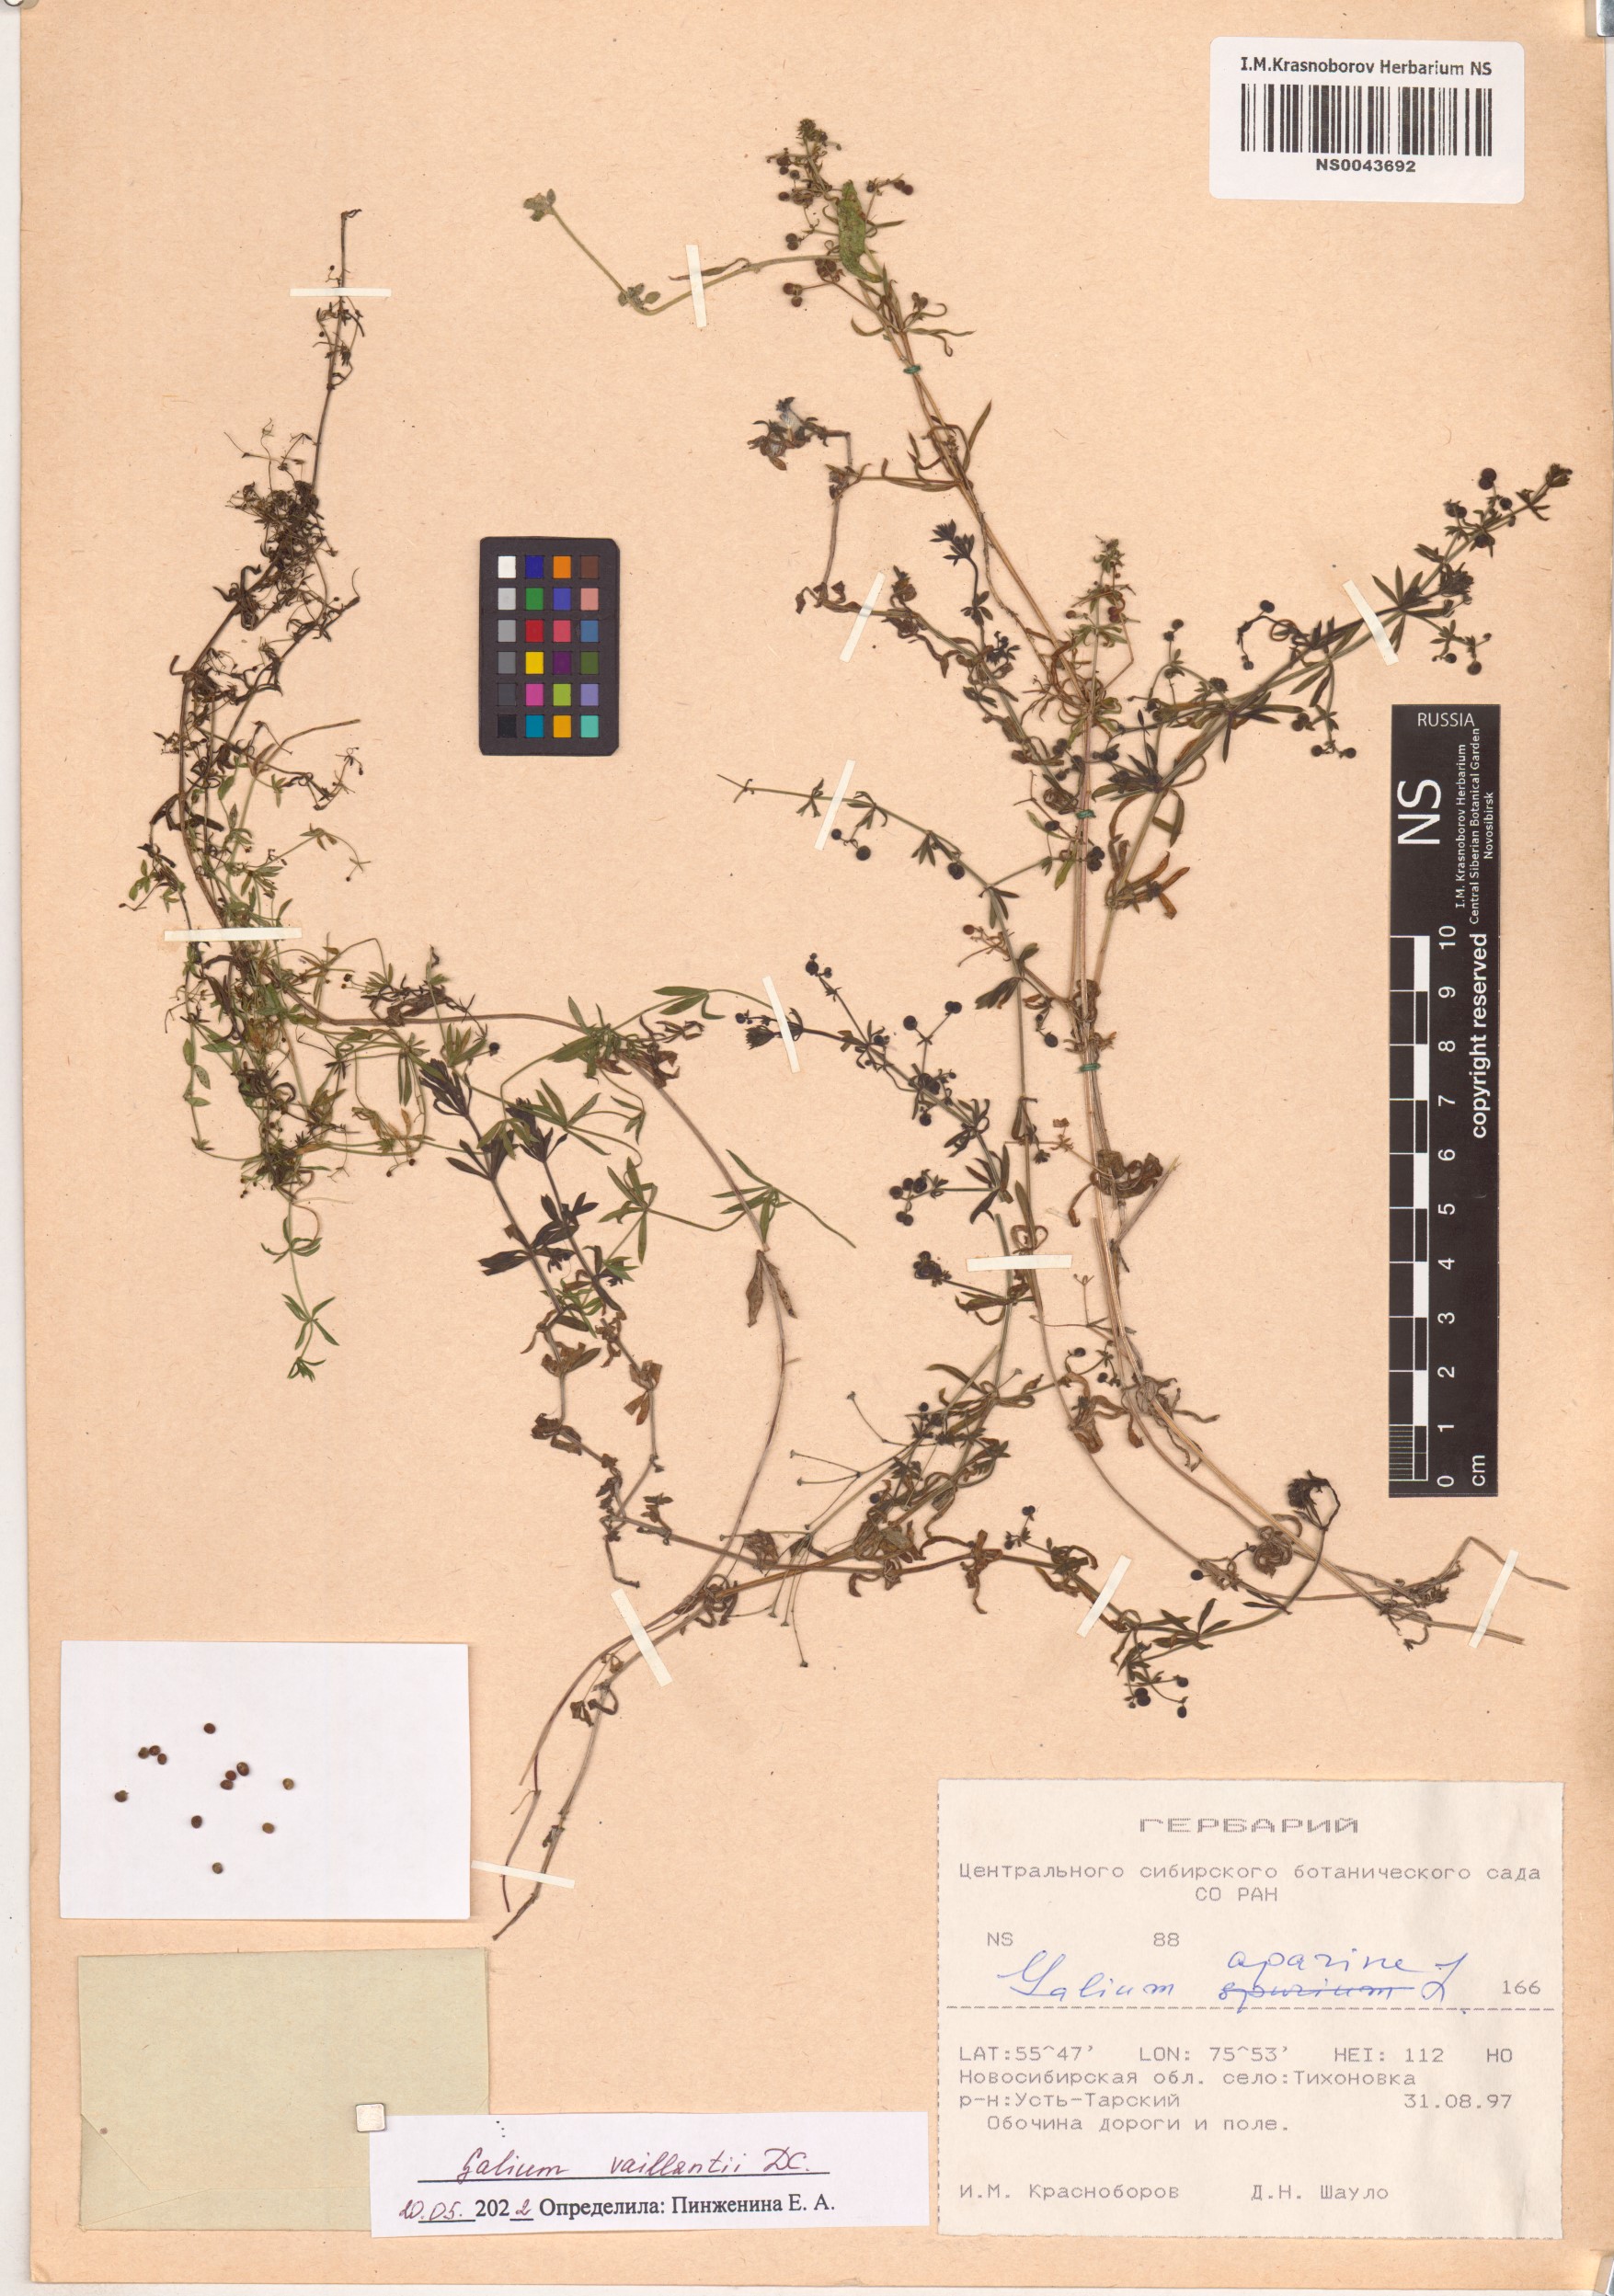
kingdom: Plantae
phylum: Tracheophyta
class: Magnoliopsida
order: Gentianales
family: Rubiaceae
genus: Galium
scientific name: Galium spurium
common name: False cleavers
